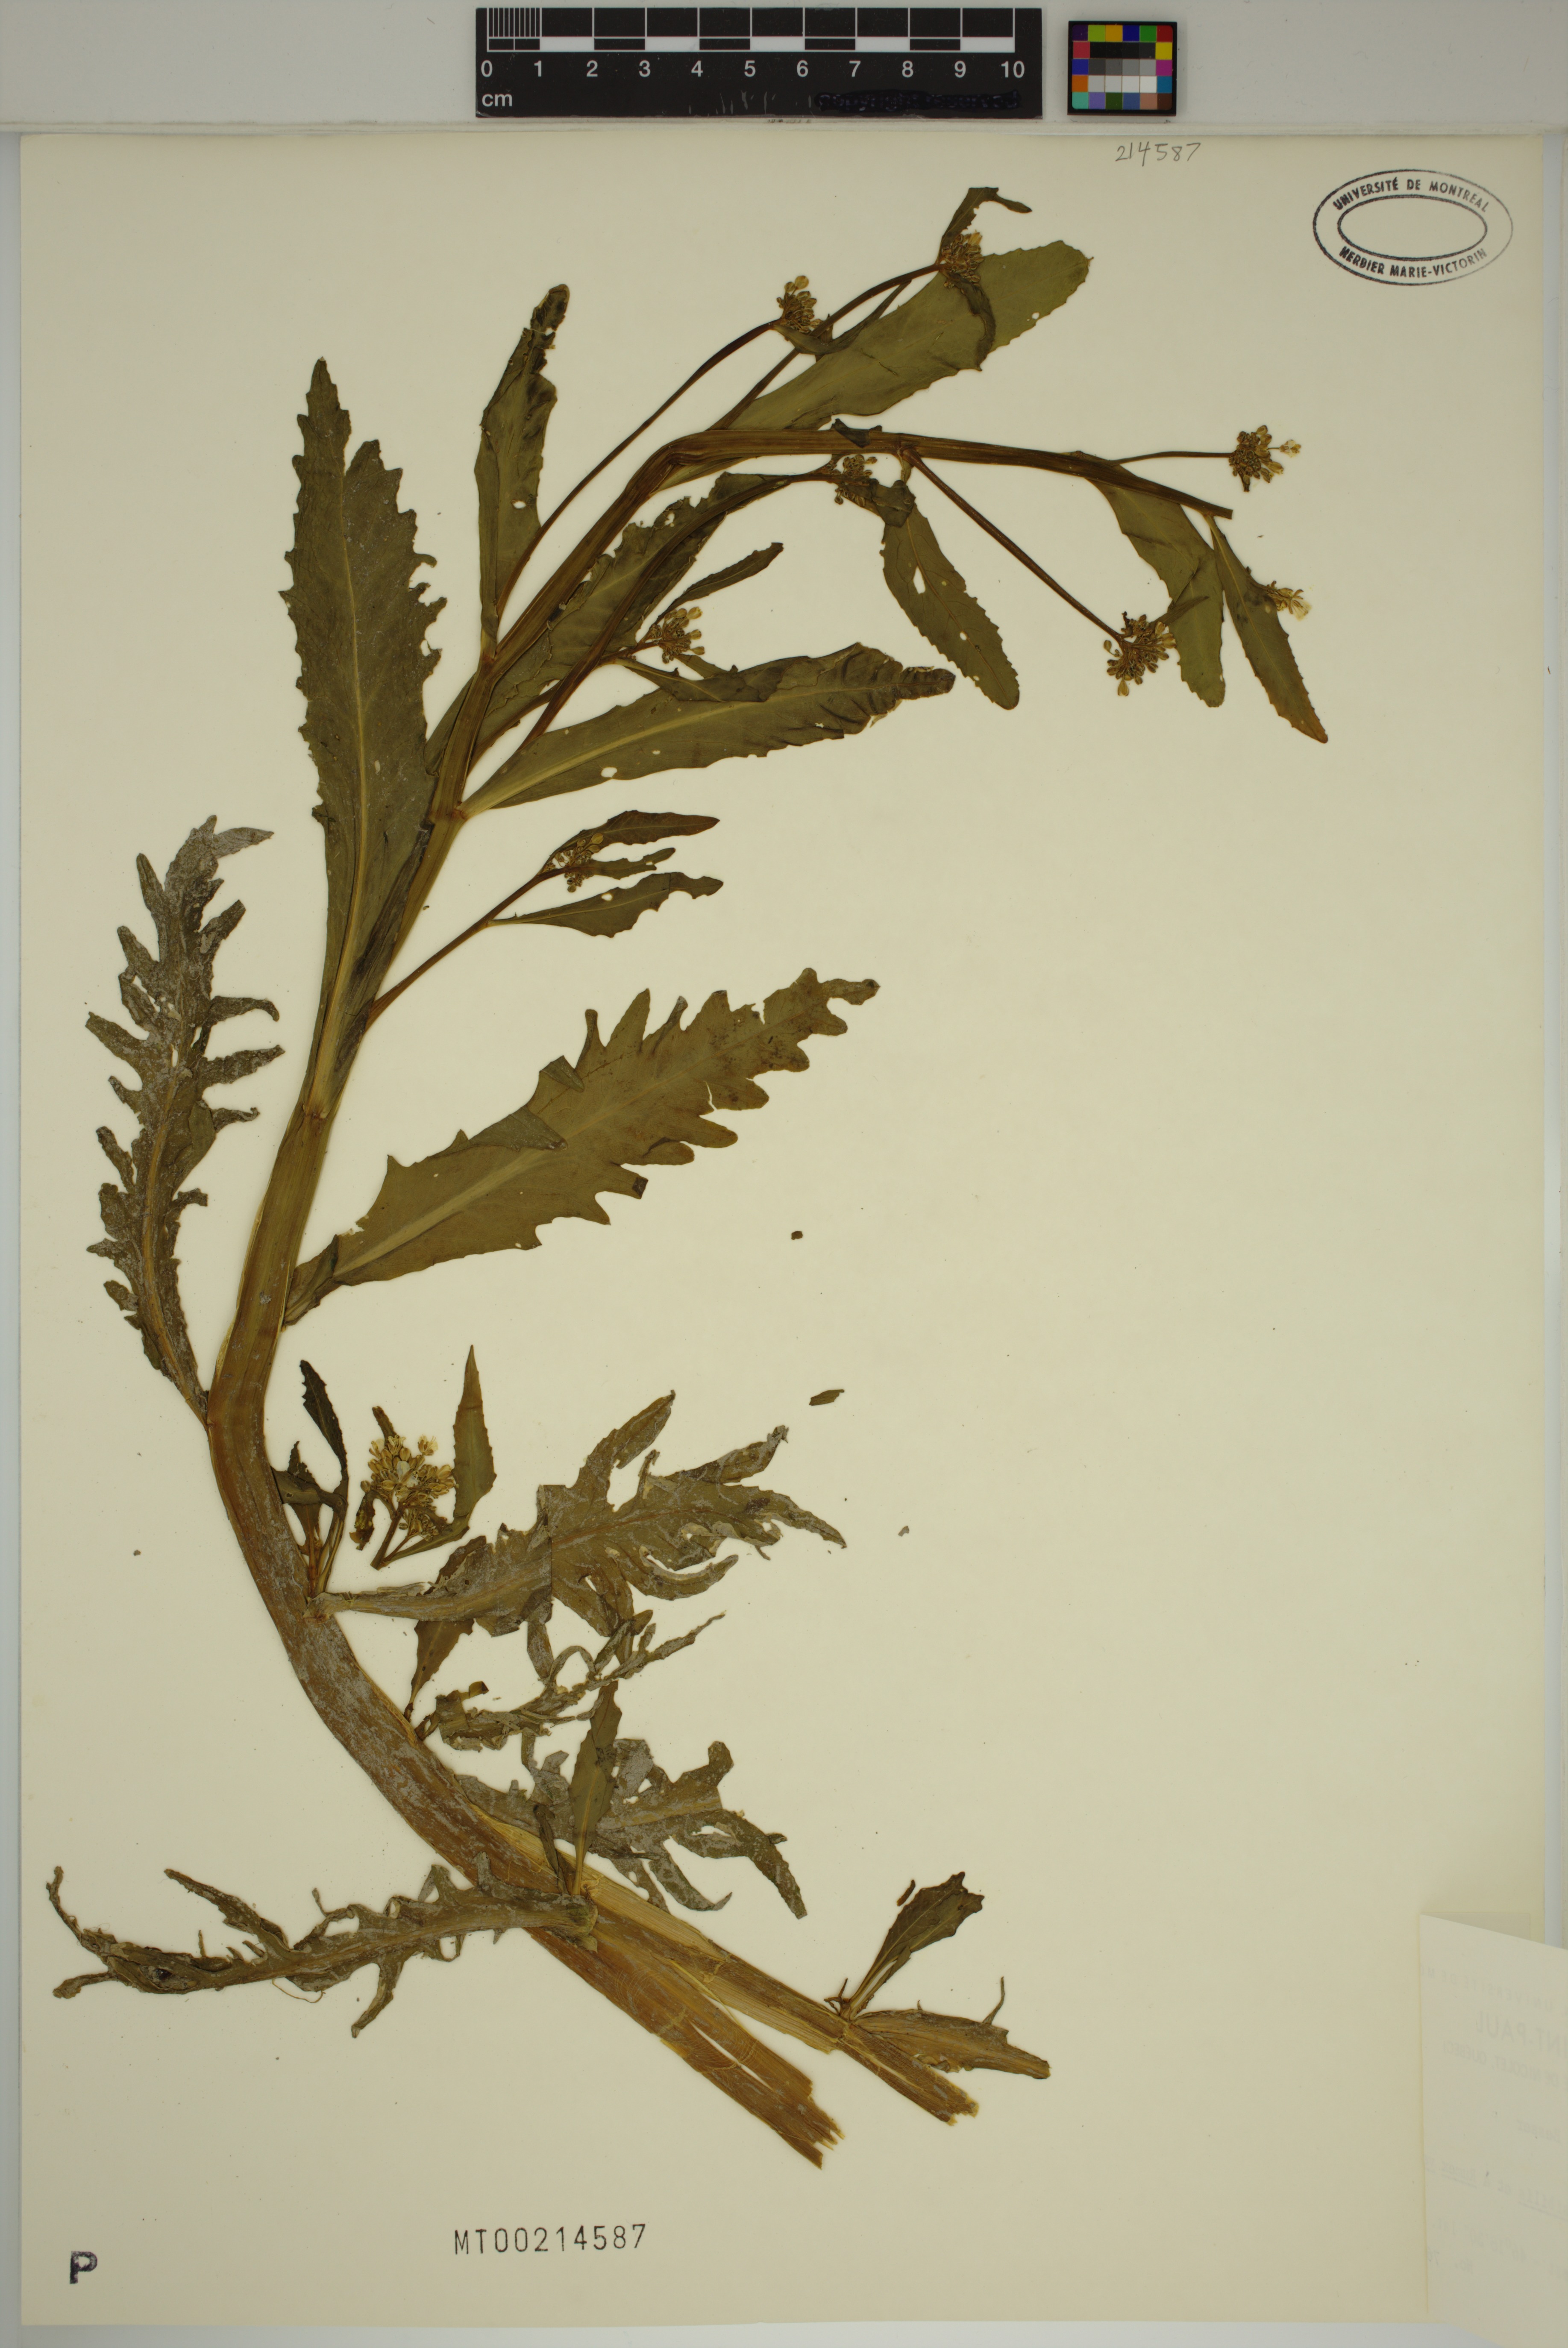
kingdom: Plantae
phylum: Tracheophyta
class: Magnoliopsida
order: Brassicales
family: Brassicaceae
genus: Rorippa
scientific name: Rorippa amphibia
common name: Great yellow-cress
